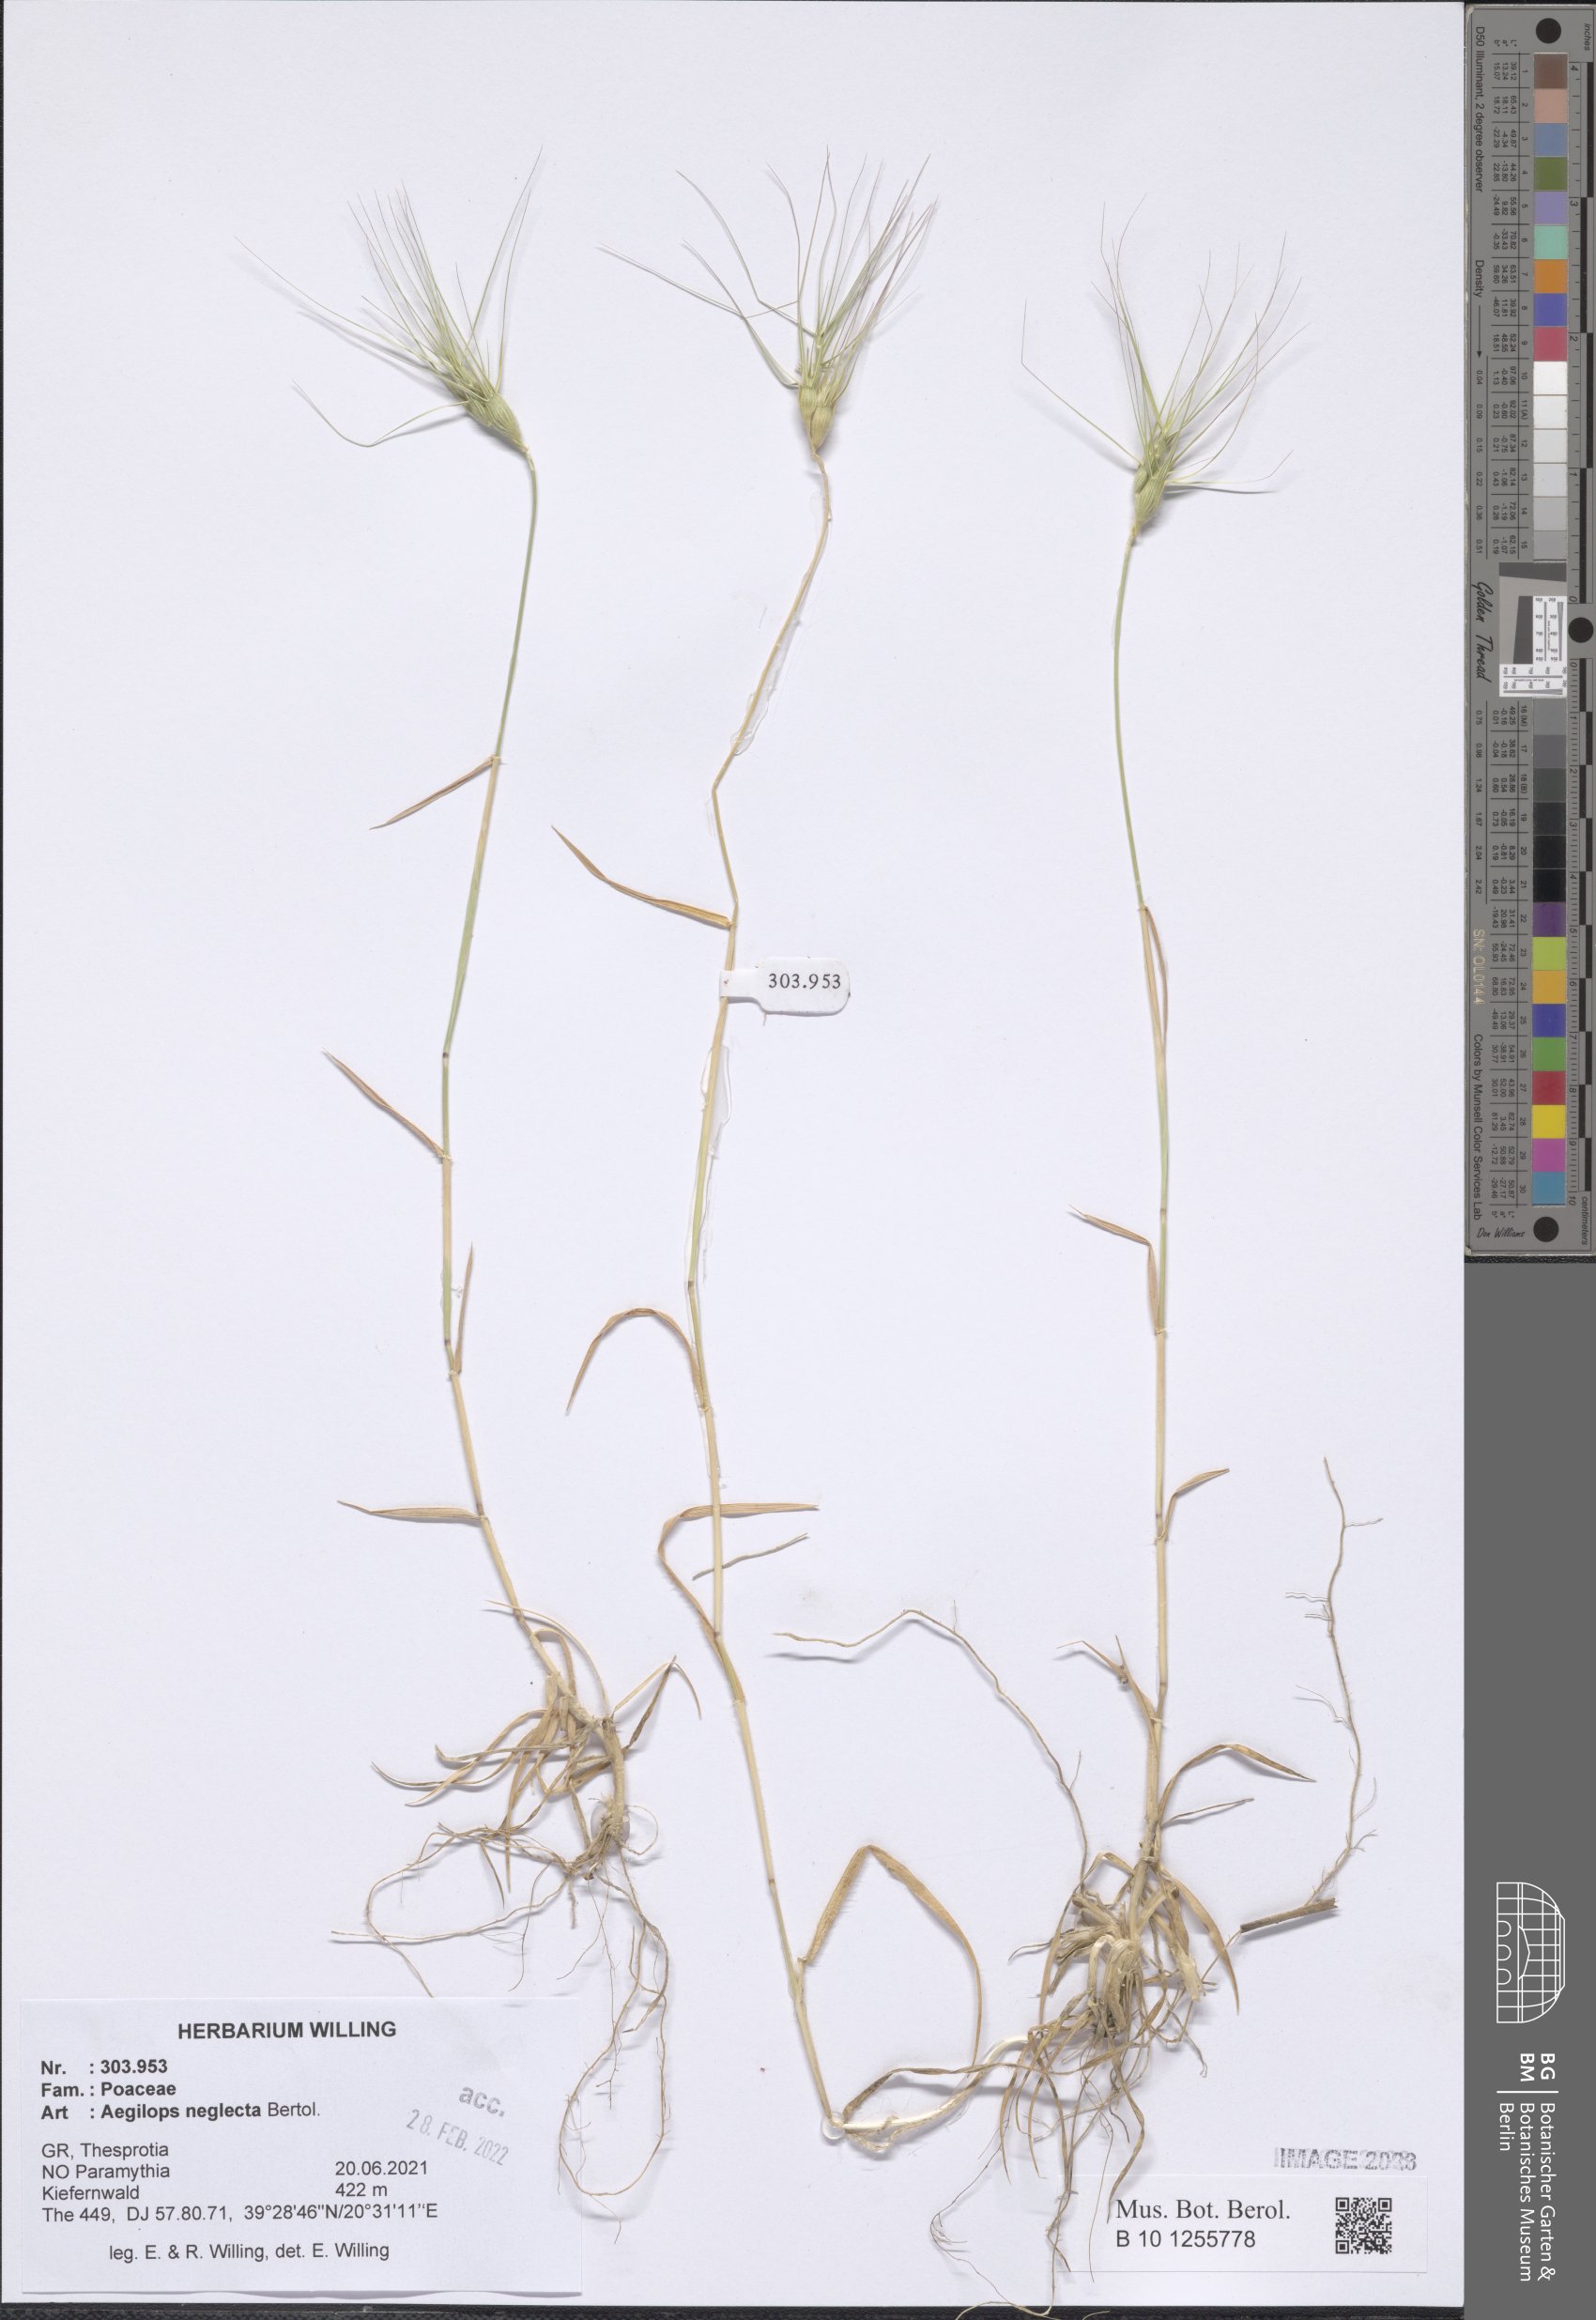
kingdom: Plantae
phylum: Tracheophyta
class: Liliopsida
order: Poales
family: Poaceae
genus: Aegilops
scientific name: Aegilops neglecta
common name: Three-awn goat grass
